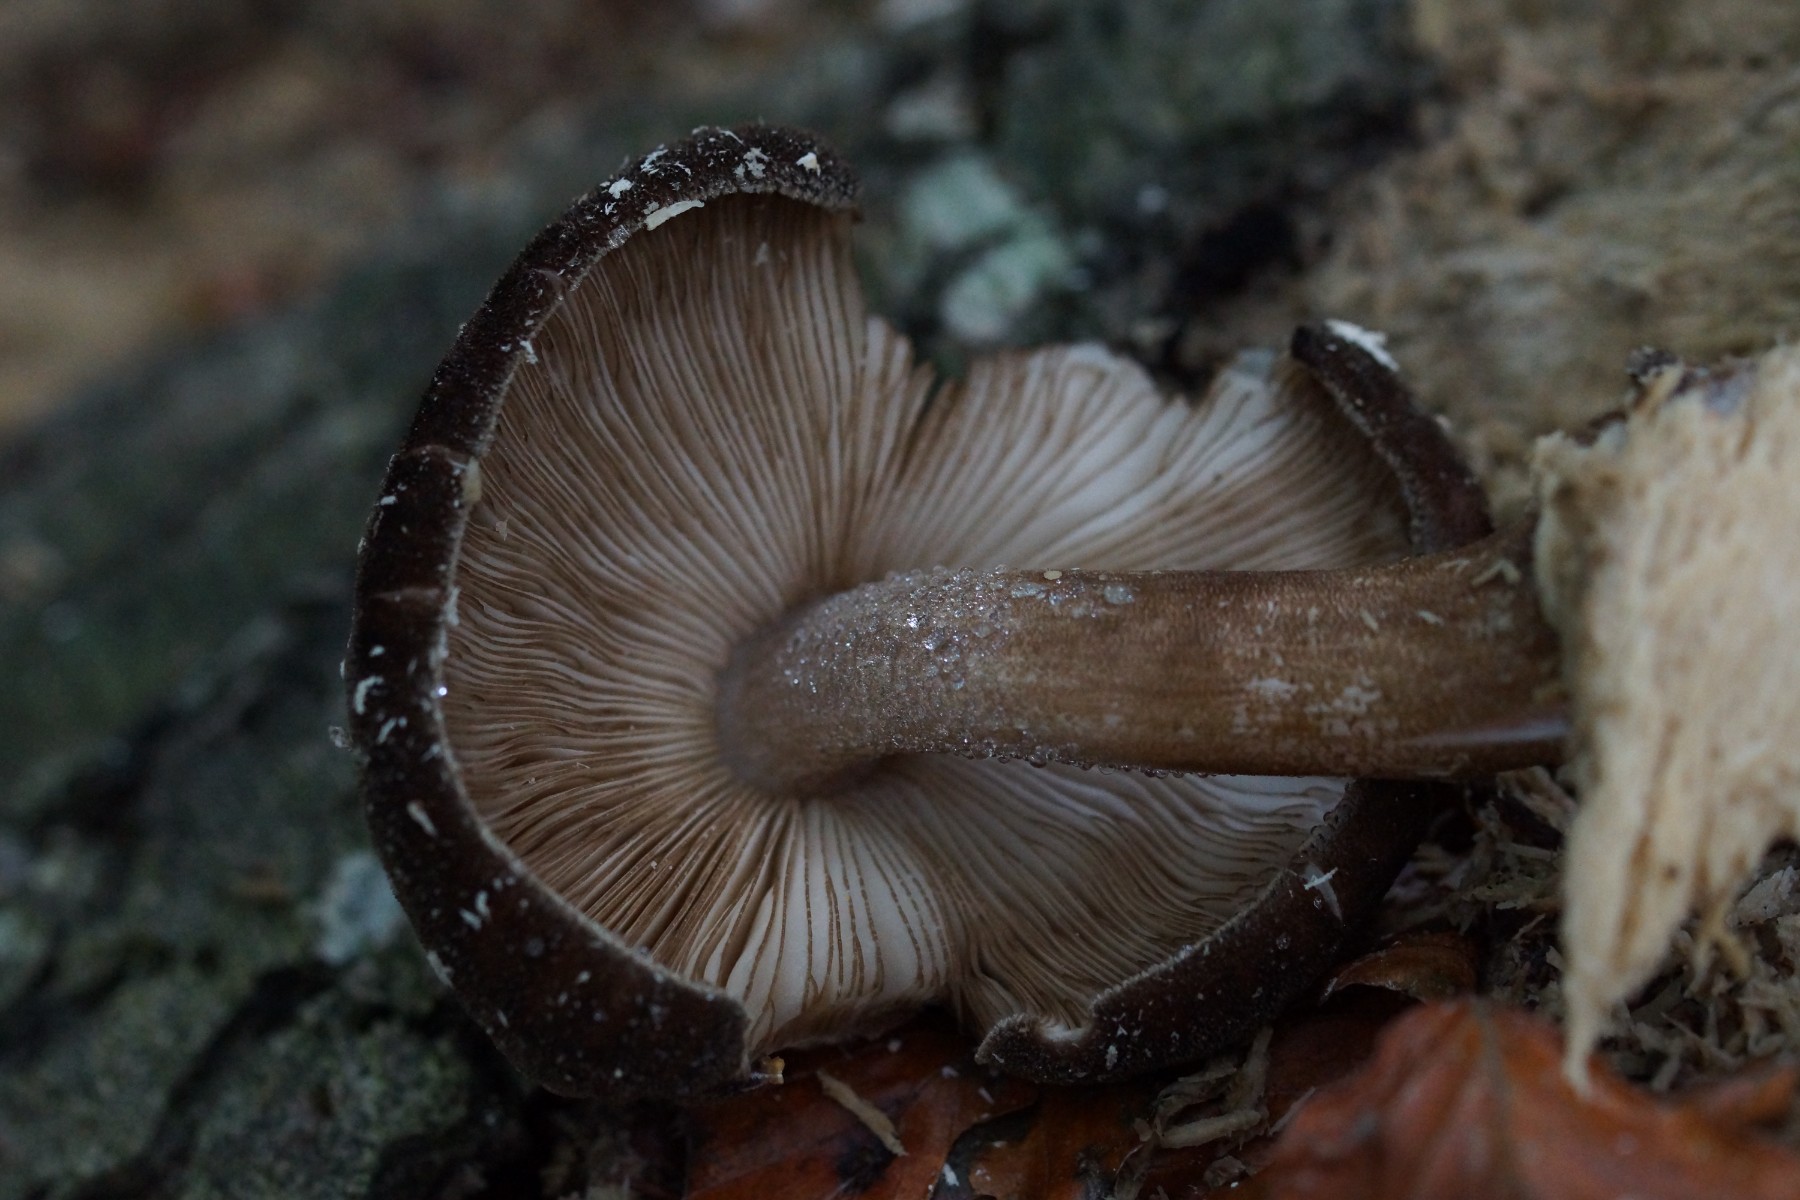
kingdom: Fungi
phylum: Basidiomycota
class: Agaricomycetes
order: Agaricales
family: Pluteaceae
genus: Pluteus
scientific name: Pluteus umbrosus
